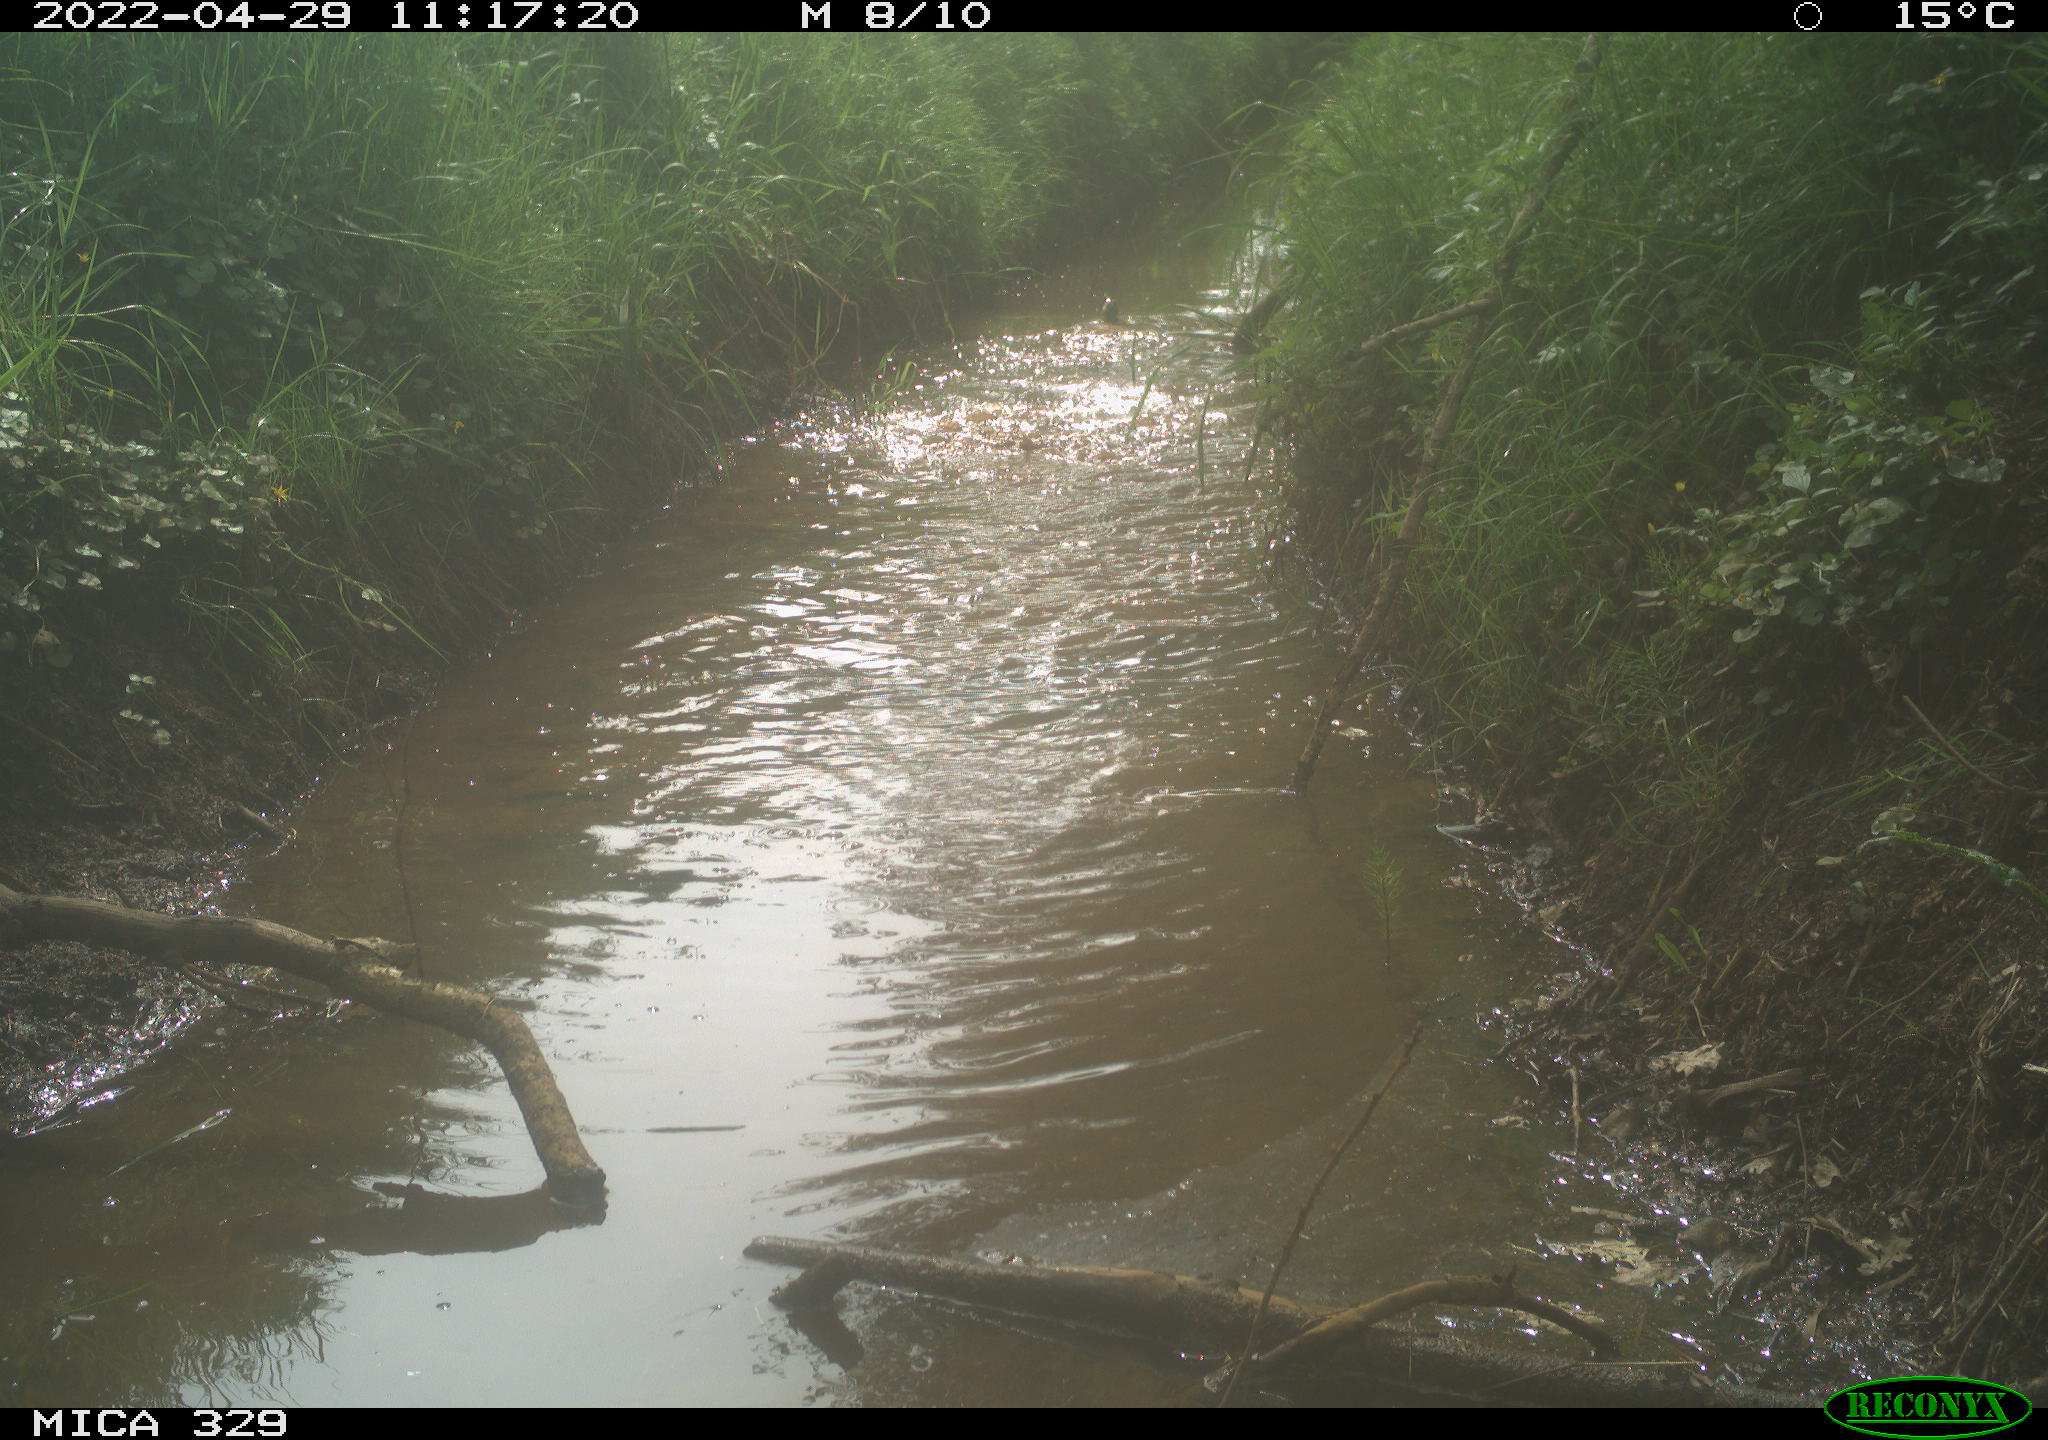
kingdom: Animalia
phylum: Chordata
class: Aves
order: Anseriformes
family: Anatidae
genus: Anas
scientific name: Anas platyrhynchos
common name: Mallard
